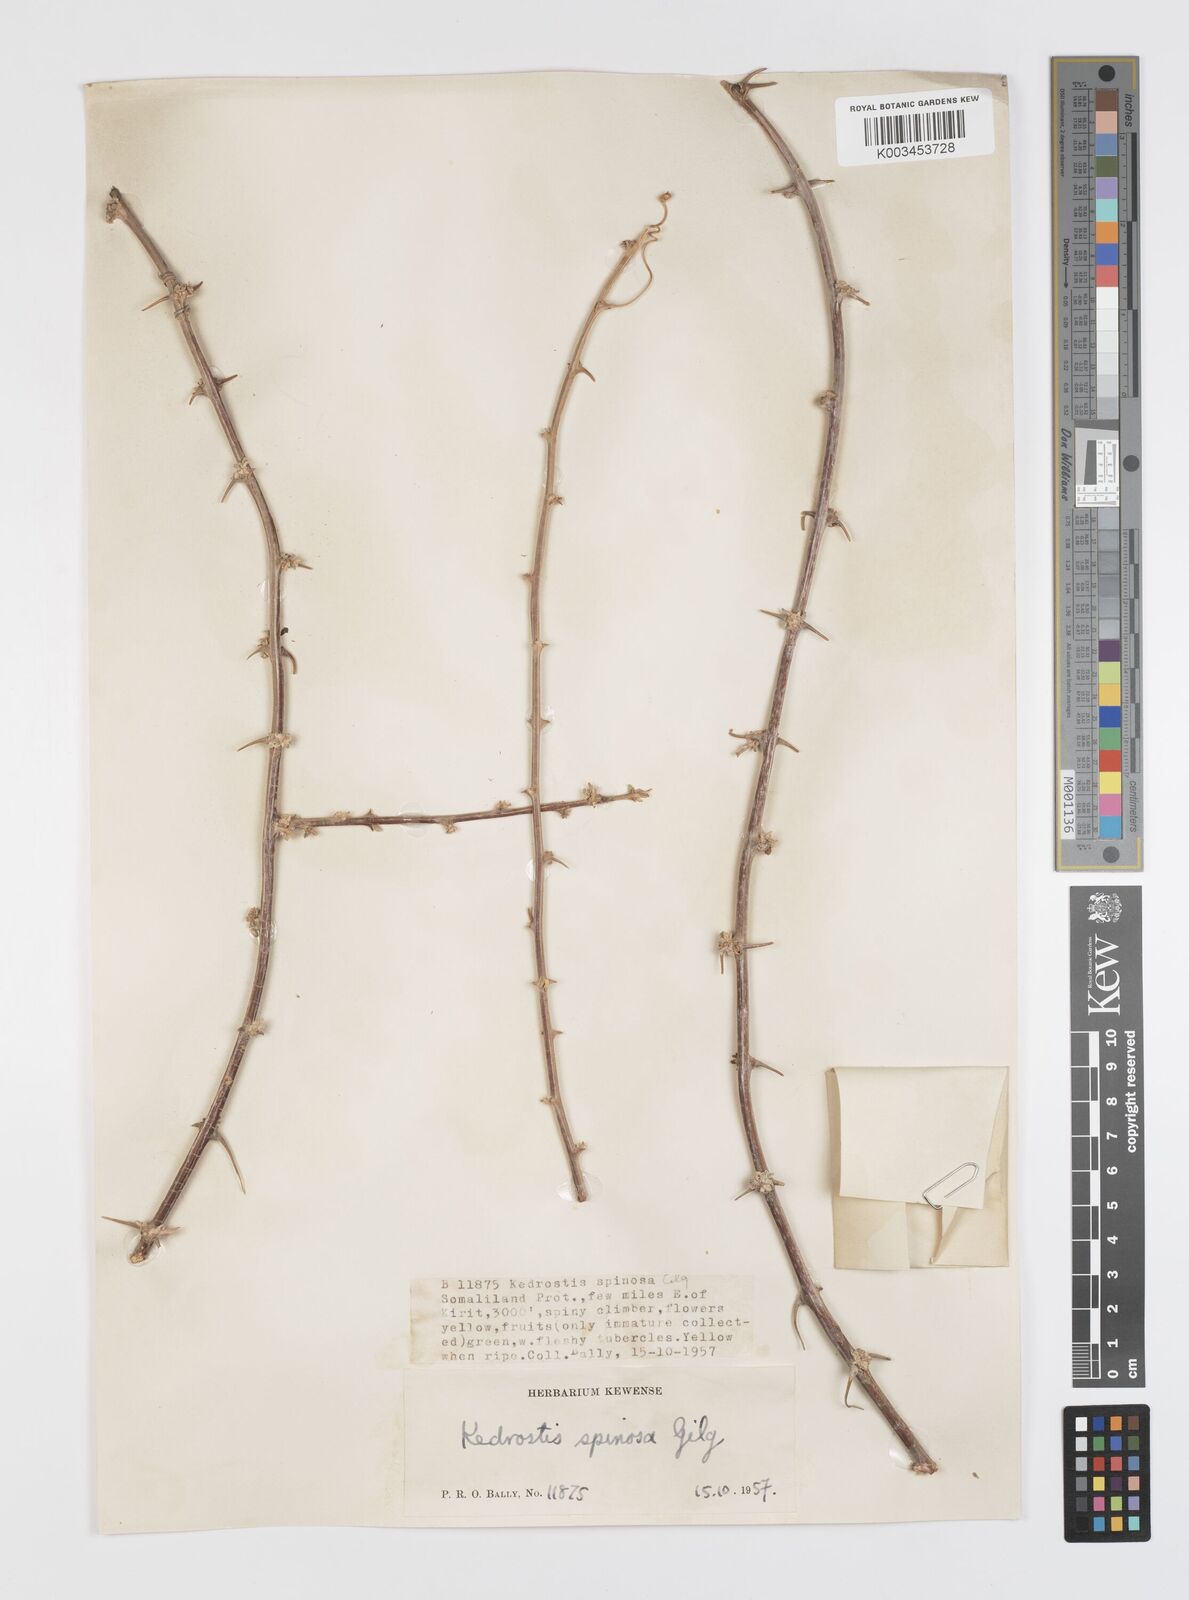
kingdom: Plantae
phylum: Tracheophyta
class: Magnoliopsida
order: Cucurbitales
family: Cucurbitaceae
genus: Momordica
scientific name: Momordica spinosa
